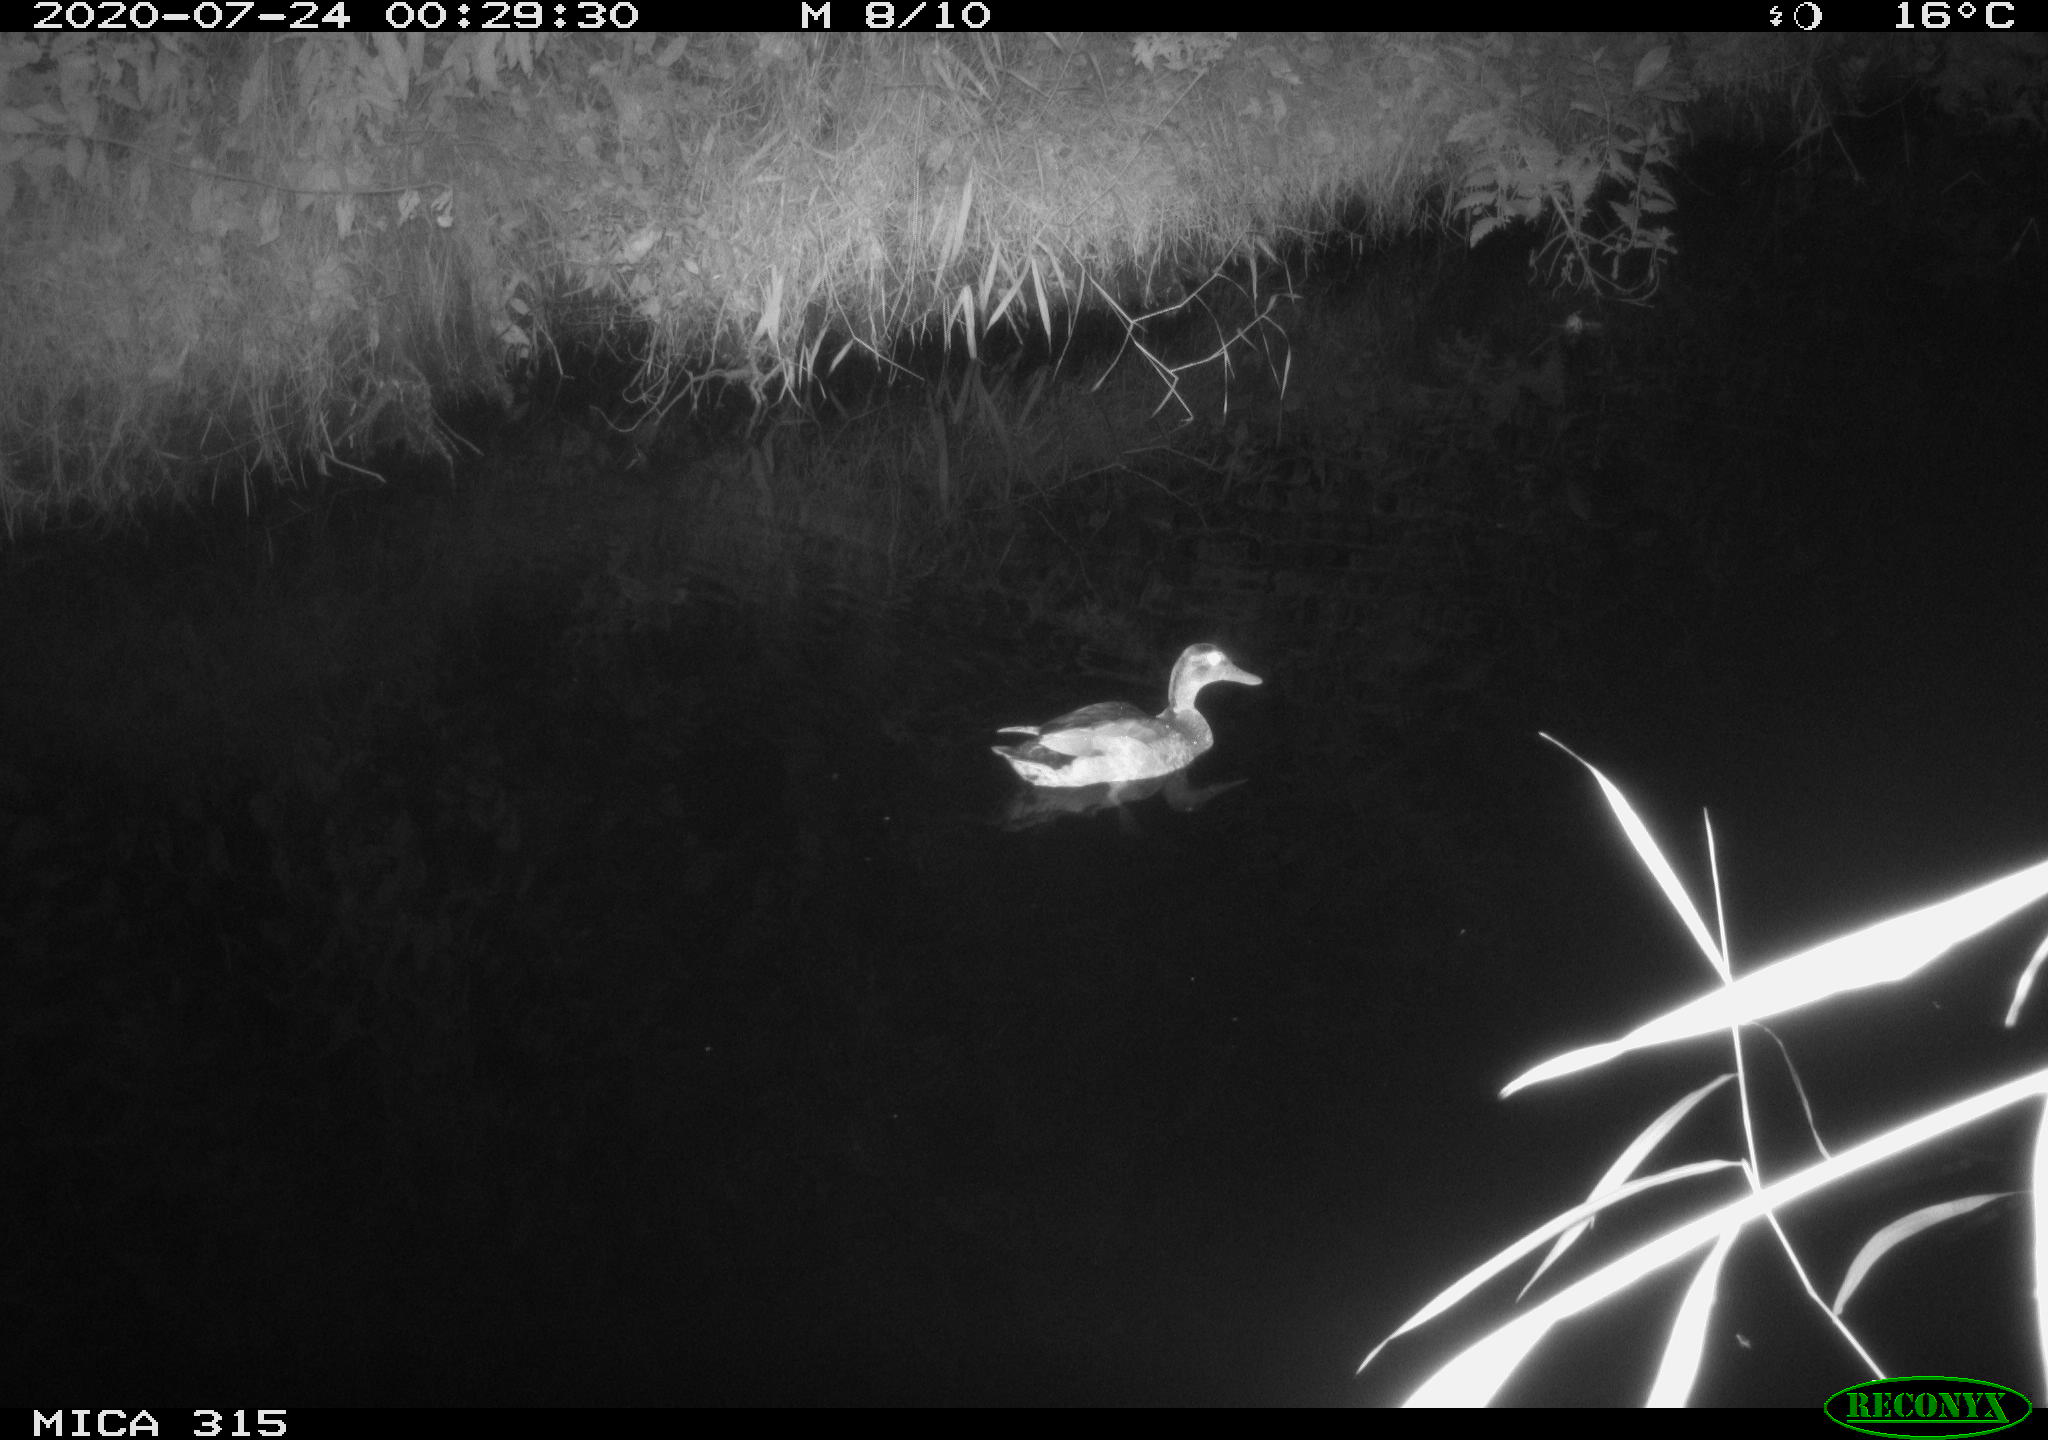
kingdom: Animalia
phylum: Chordata
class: Aves
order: Anseriformes
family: Anatidae
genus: Anas
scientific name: Anas platyrhynchos
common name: Mallard
